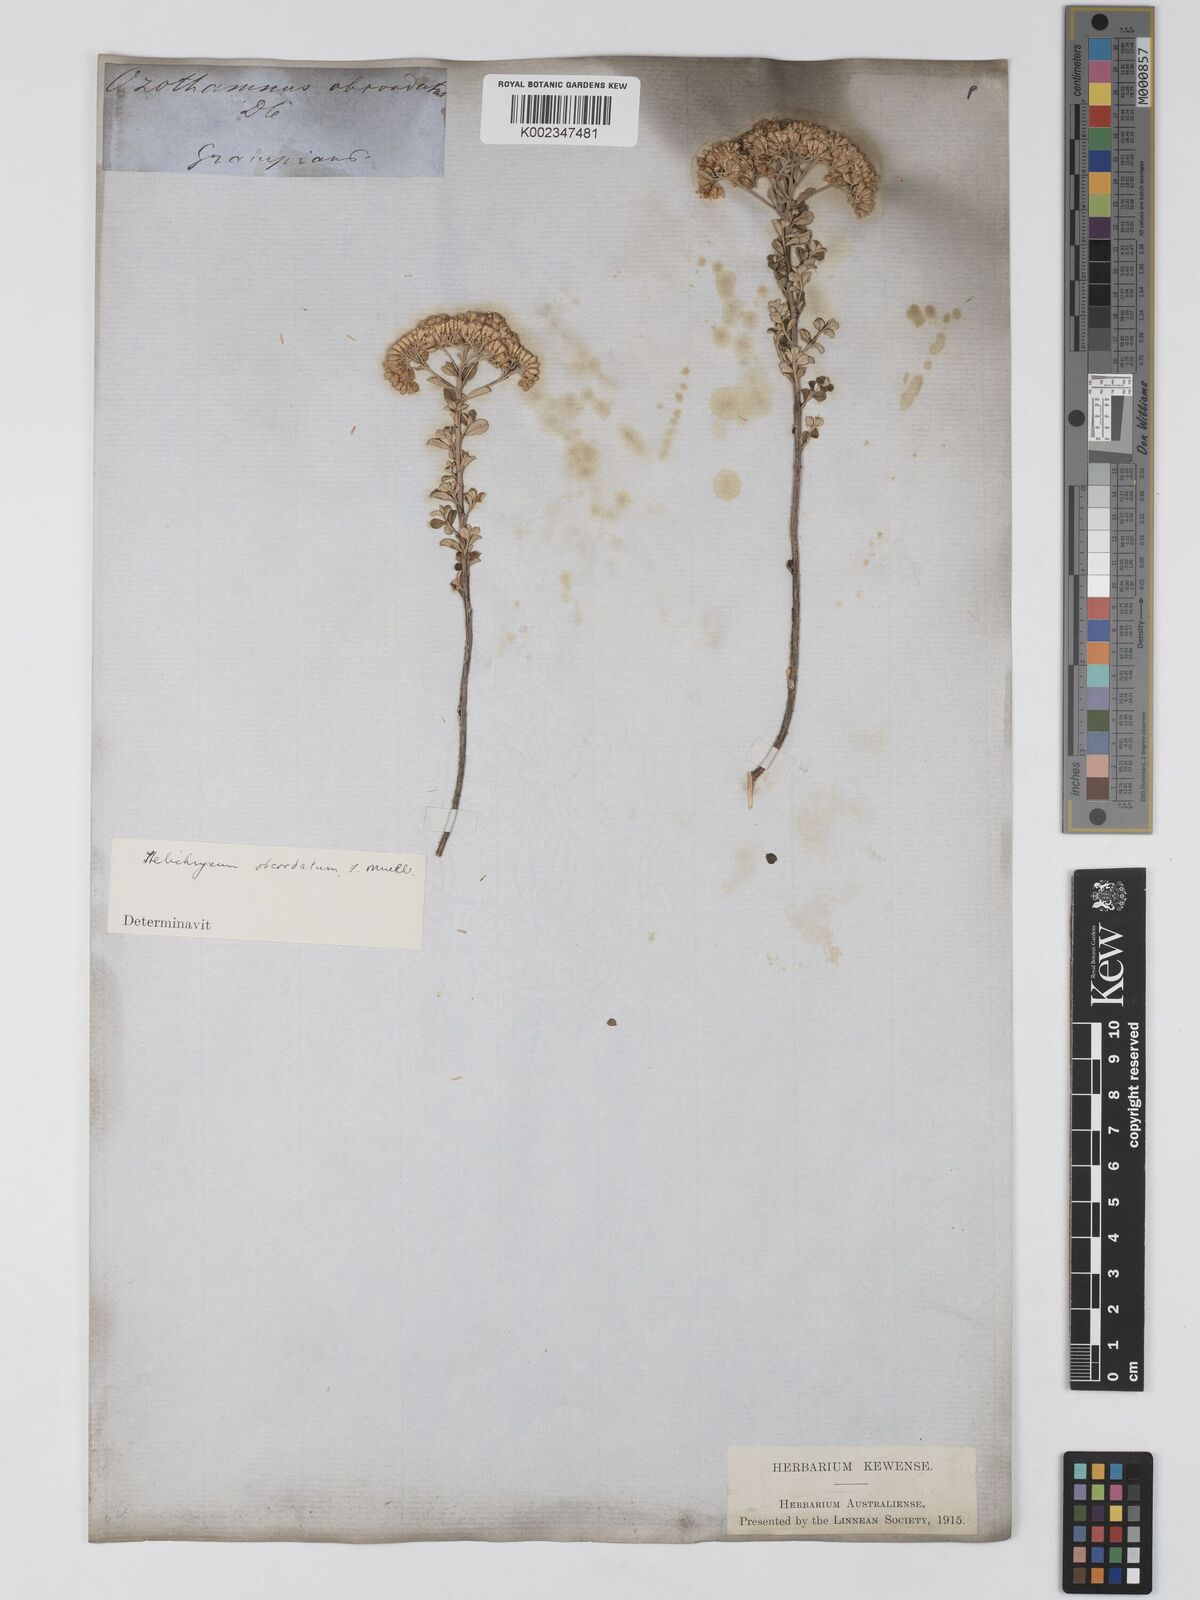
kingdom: Plantae
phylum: Tracheophyta
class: Magnoliopsida
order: Asterales
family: Asteraceae
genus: Ozothamnus
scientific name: Ozothamnus
